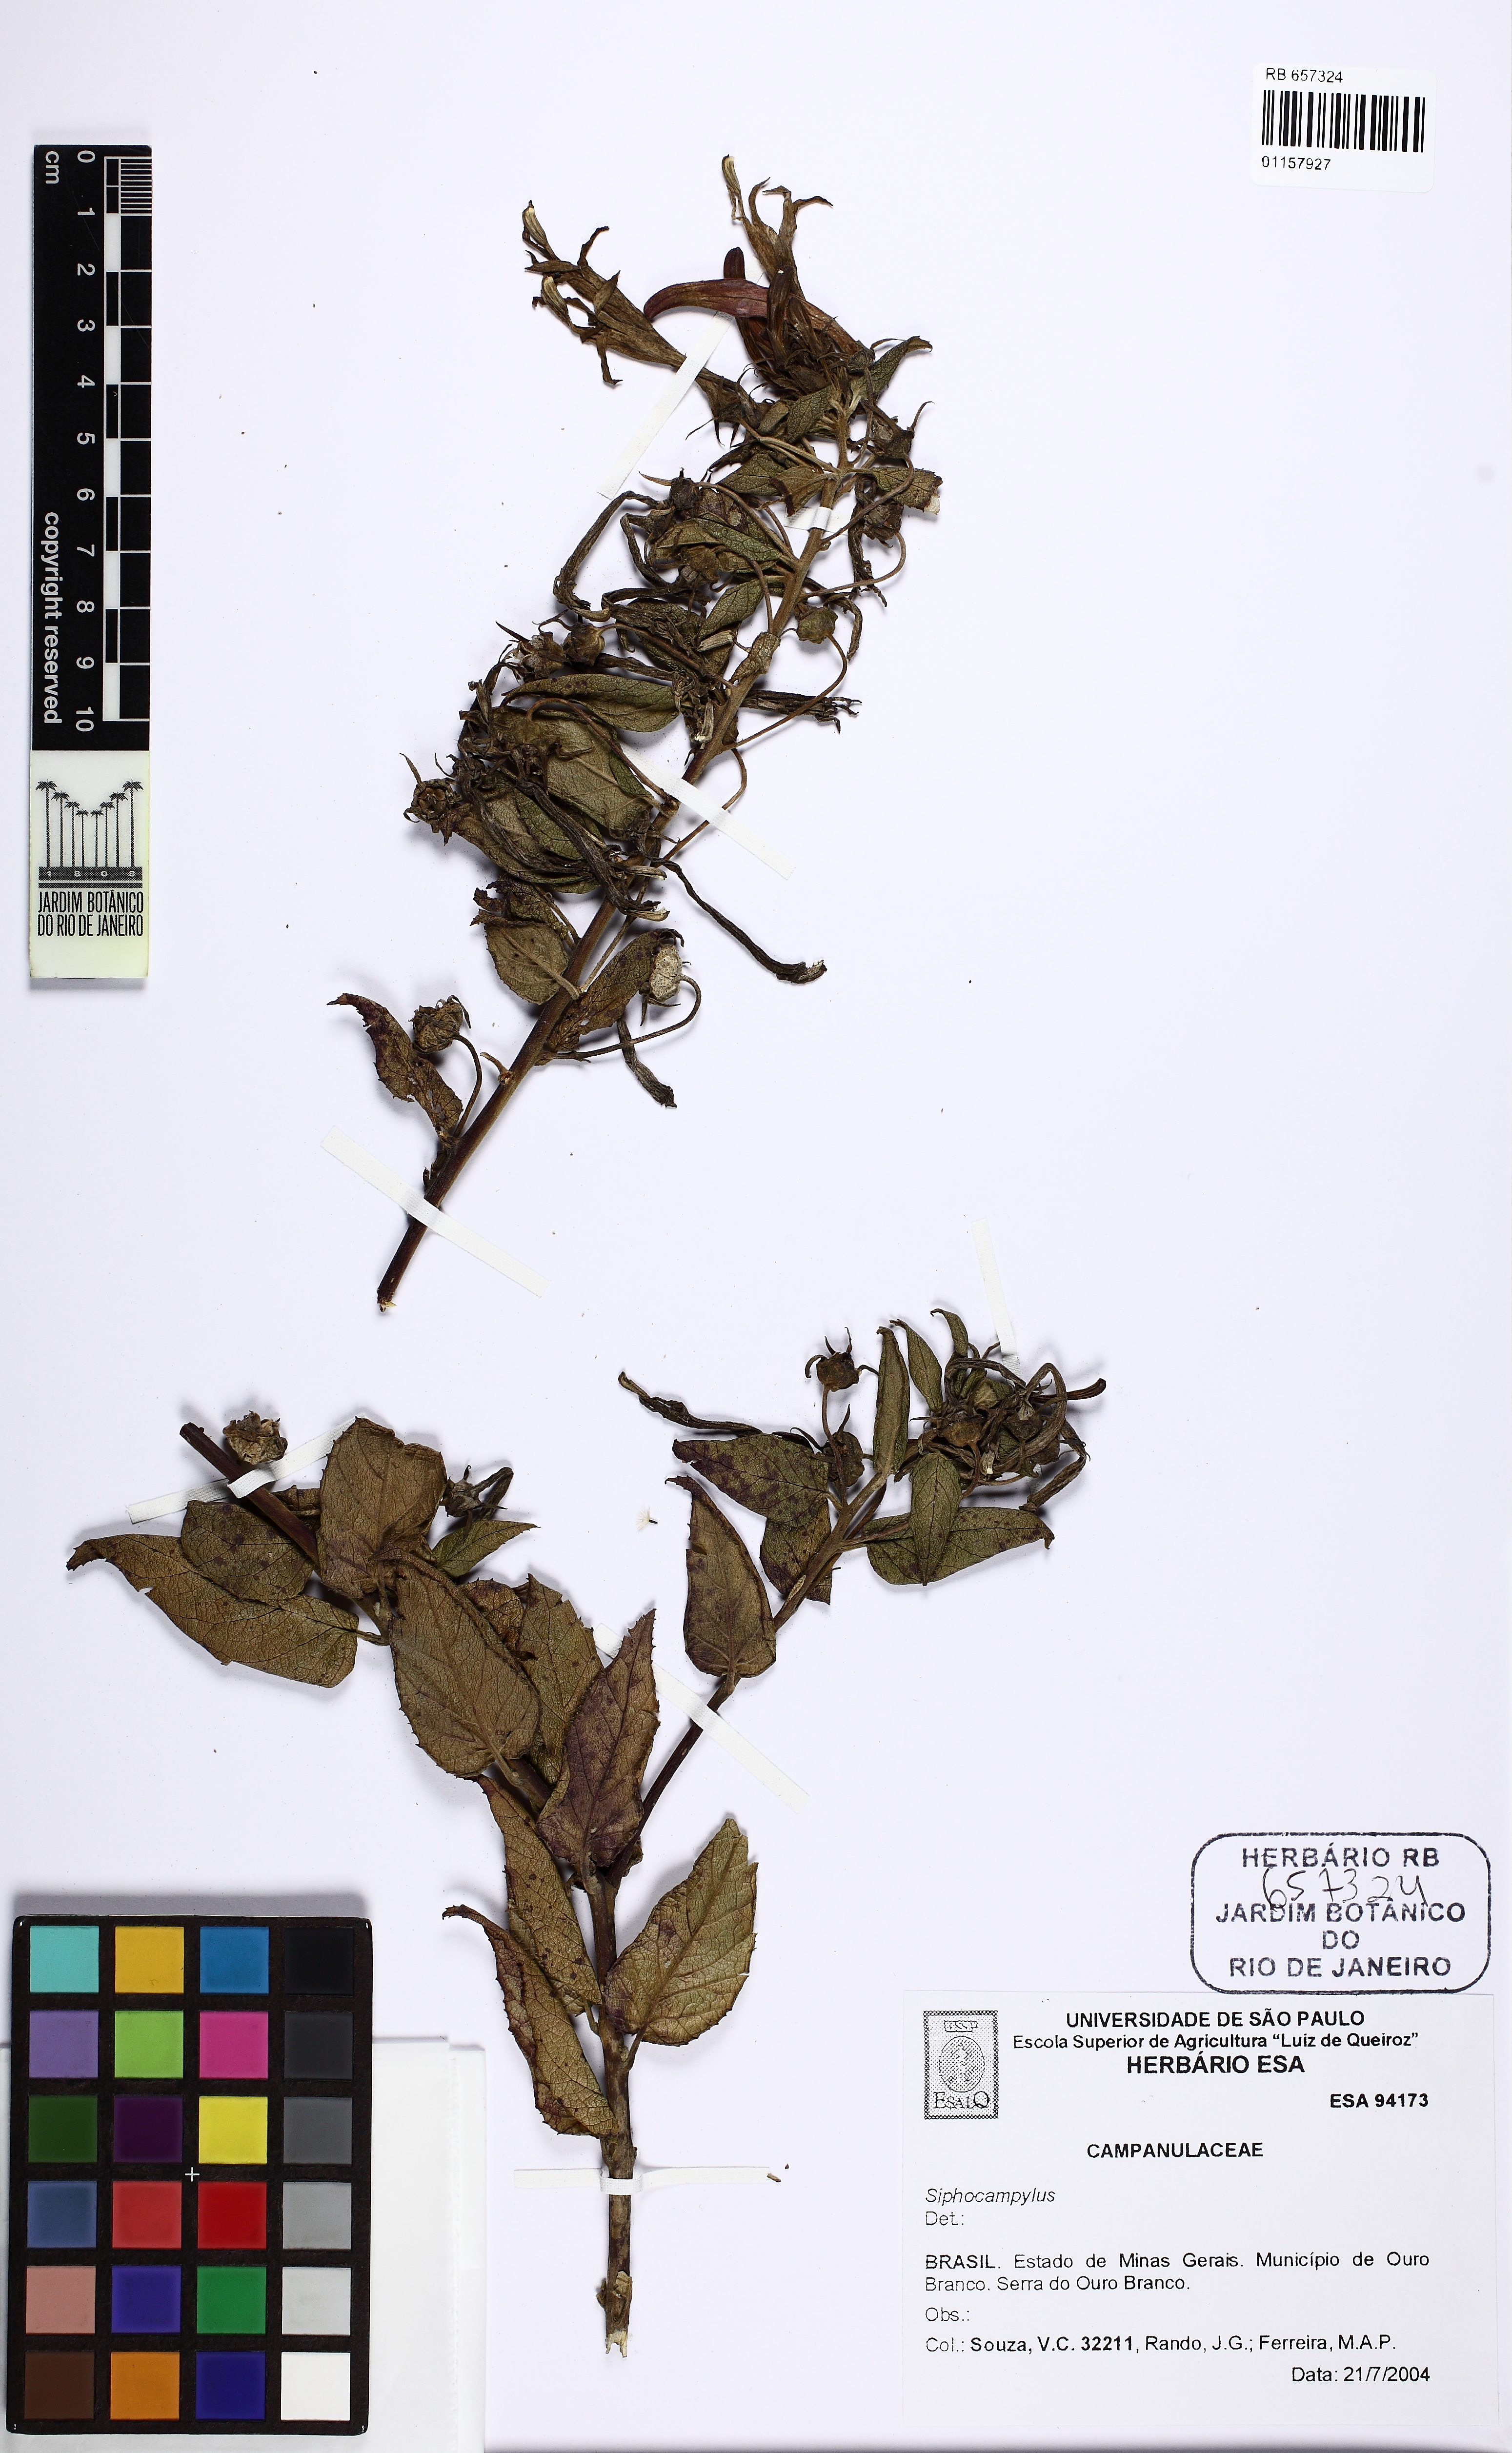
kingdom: Plantae
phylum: Tracheophyta
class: Magnoliopsida
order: Asterales
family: Campanulaceae
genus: Siphocampylus
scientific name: Siphocampylus nitidus
